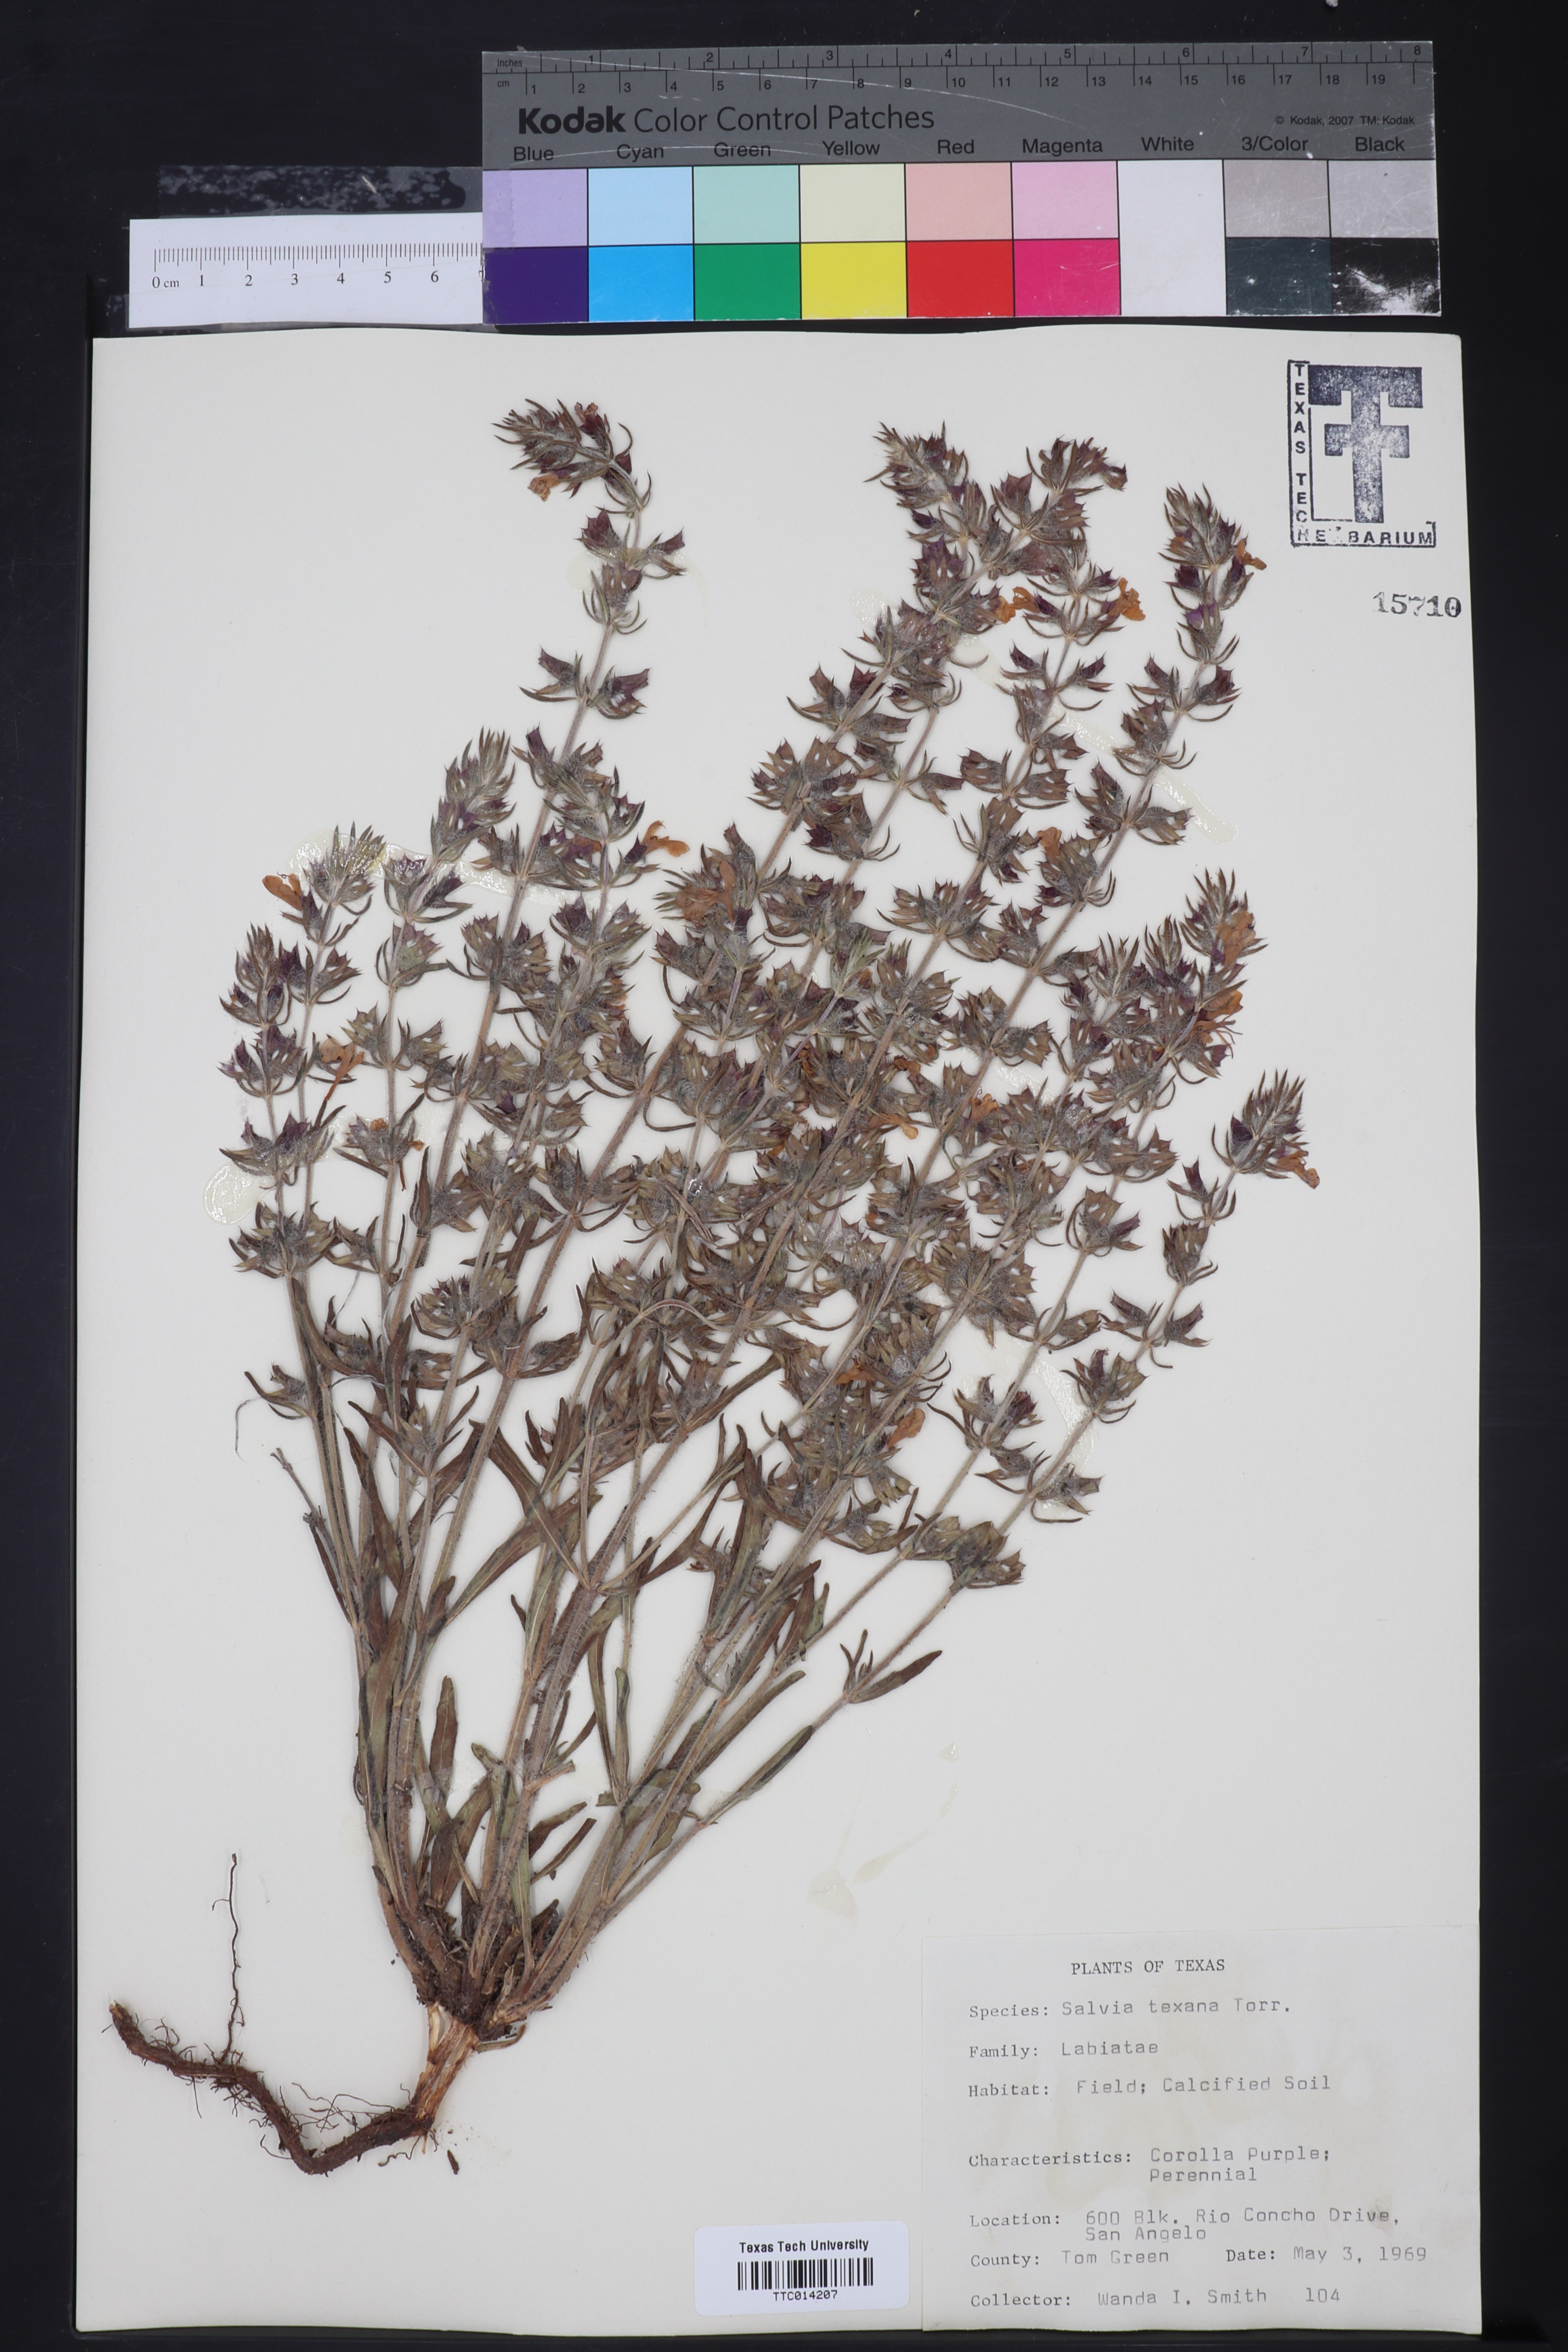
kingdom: Plantae
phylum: Tracheophyta
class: Magnoliopsida
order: Lamiales
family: Lamiaceae
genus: Salvia
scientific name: Salvia texana
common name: Texas sage
